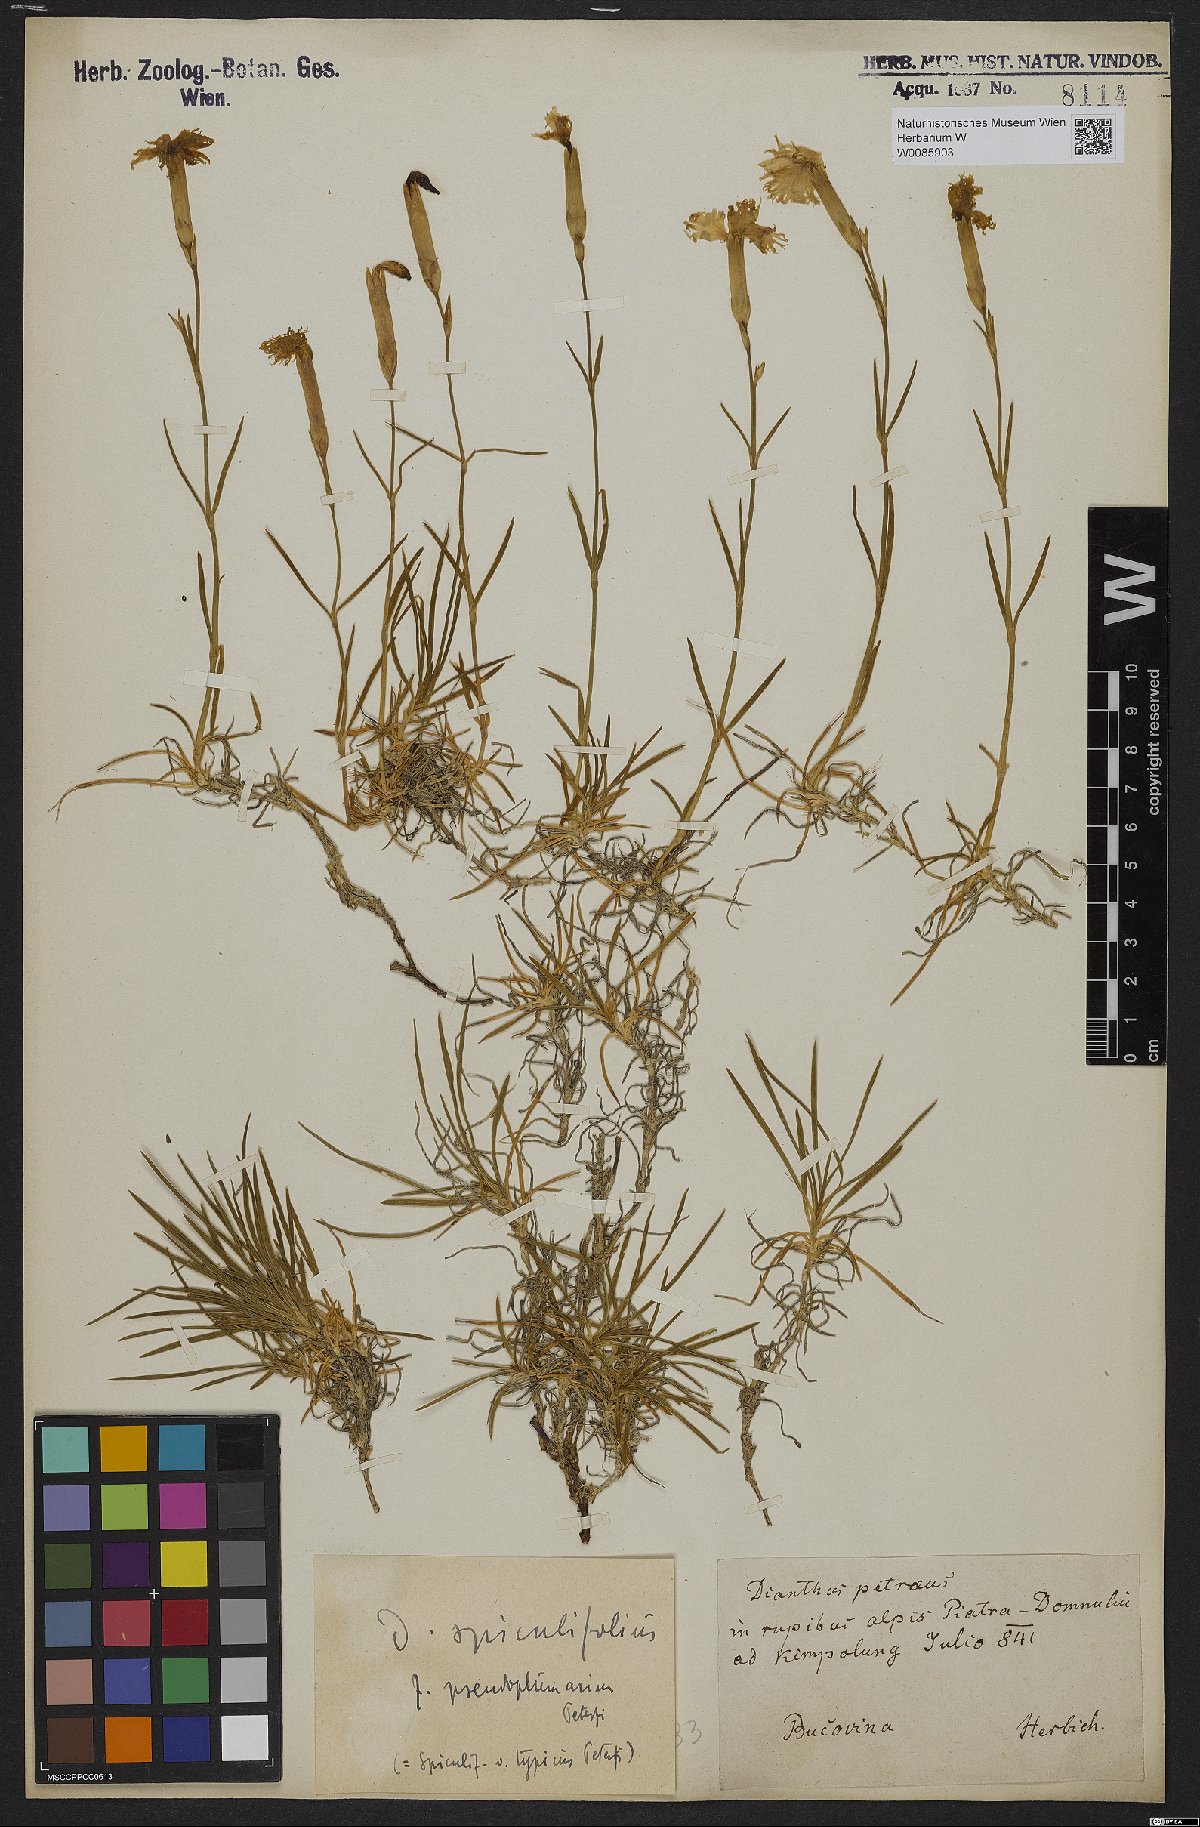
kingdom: Plantae
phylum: Tracheophyta
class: Magnoliopsida
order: Caryophyllales
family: Caryophyllaceae
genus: Dianthus
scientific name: Dianthus spiculifolius
